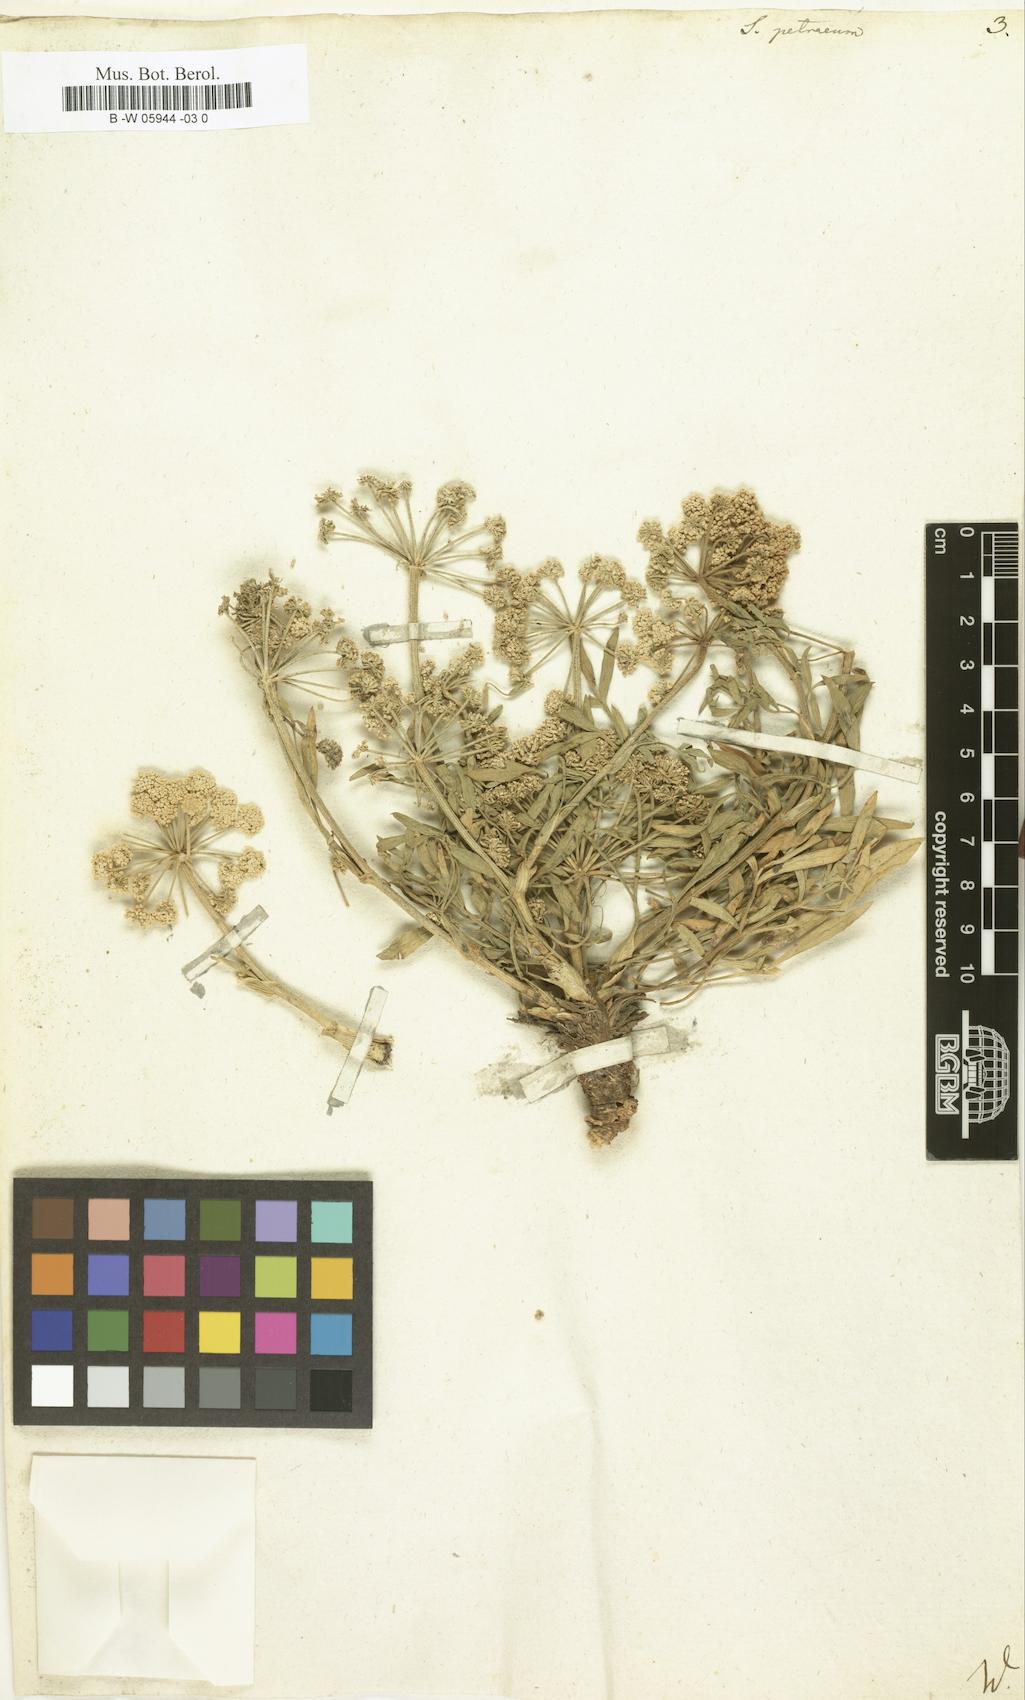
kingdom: Plantae
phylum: Tracheophyta
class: Magnoliopsida
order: Apiales
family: Apiaceae
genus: Hippomarathrum
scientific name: Hippomarathrum petraeum
